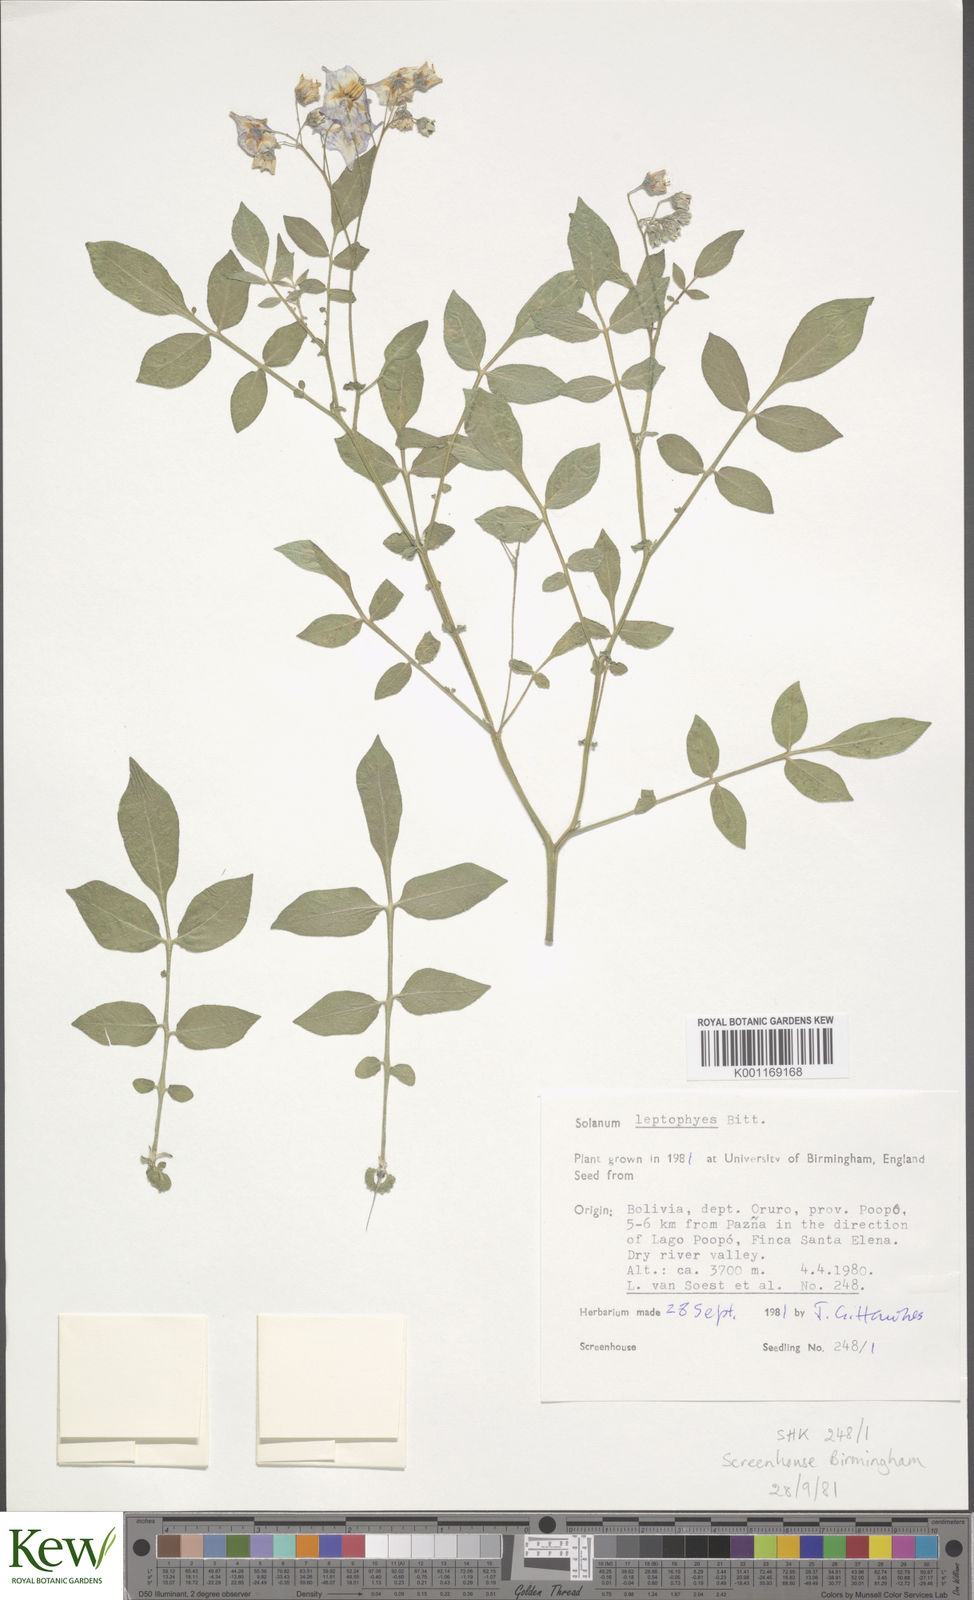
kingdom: Plantae
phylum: Tracheophyta
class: Magnoliopsida
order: Solanales
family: Solanaceae
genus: Solanum
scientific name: Solanum brevicaule
